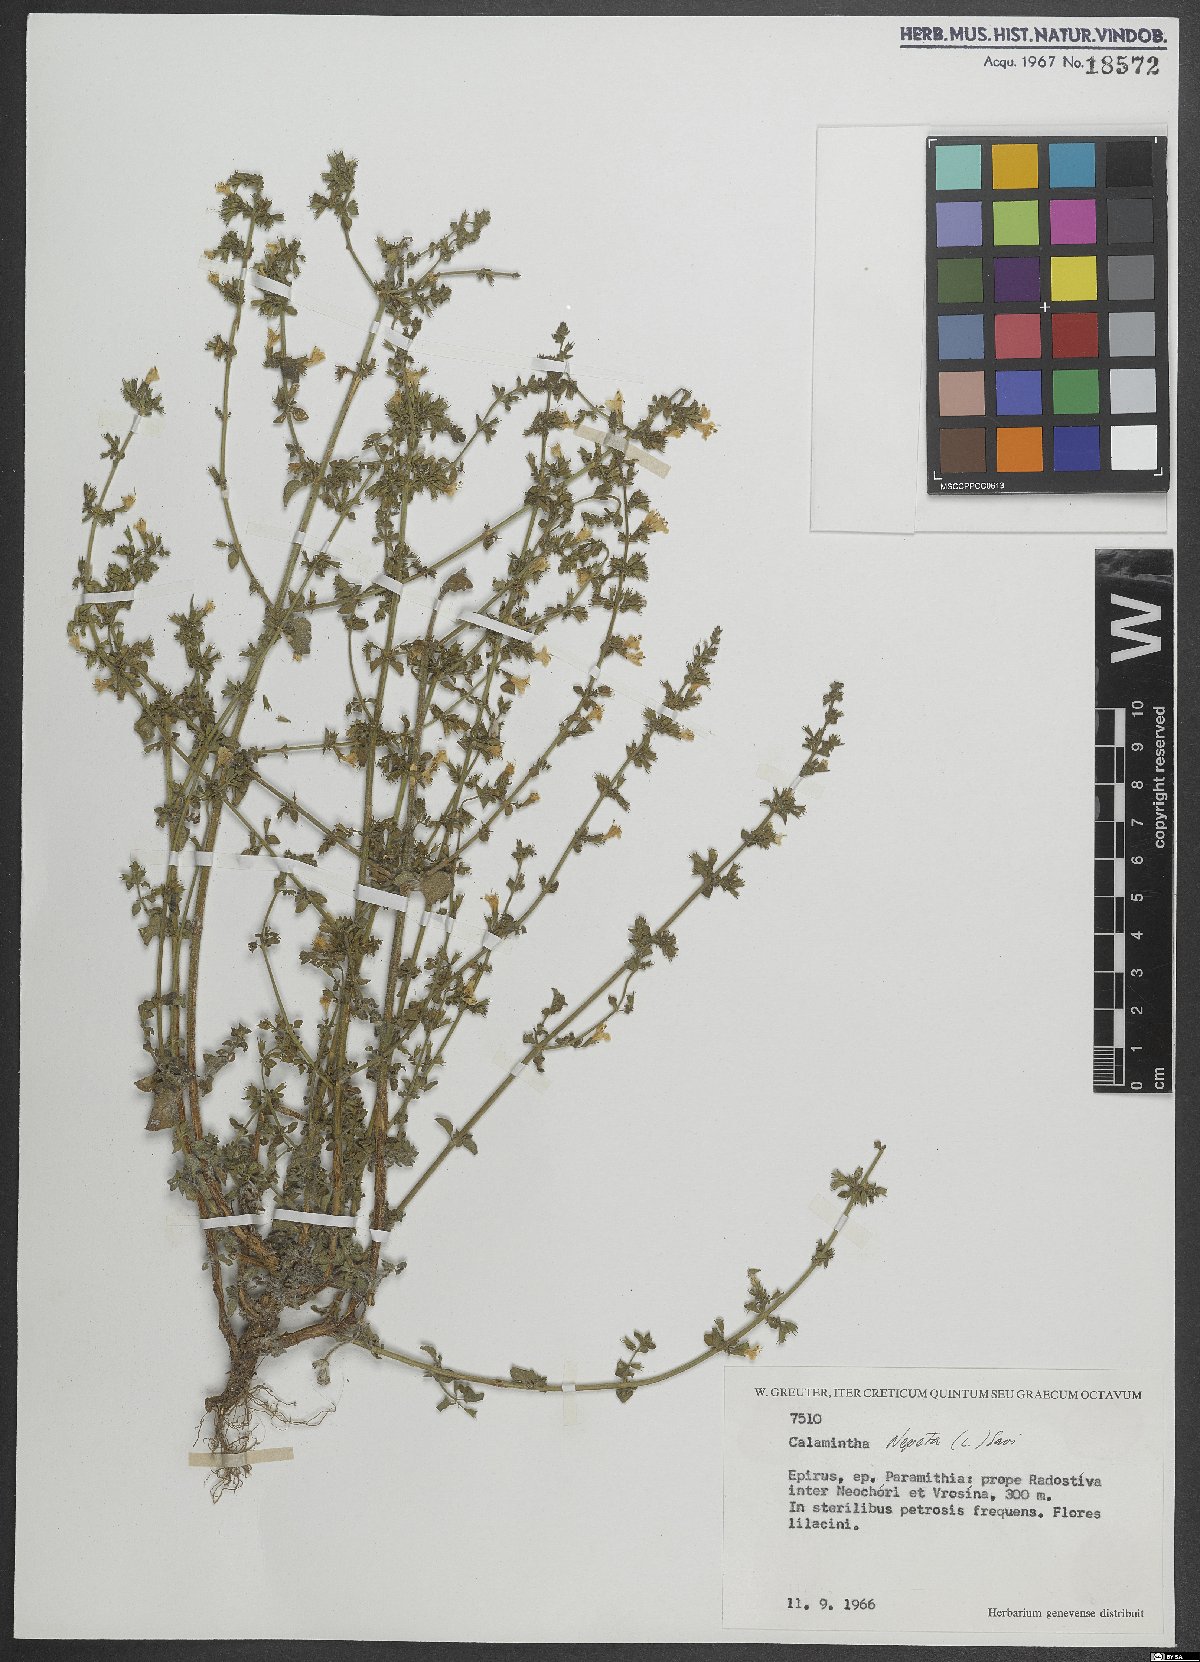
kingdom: Plantae
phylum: Tracheophyta
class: Magnoliopsida
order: Lamiales
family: Lamiaceae
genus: Clinopodium
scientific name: Clinopodium nepeta
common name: Lesser calamint
